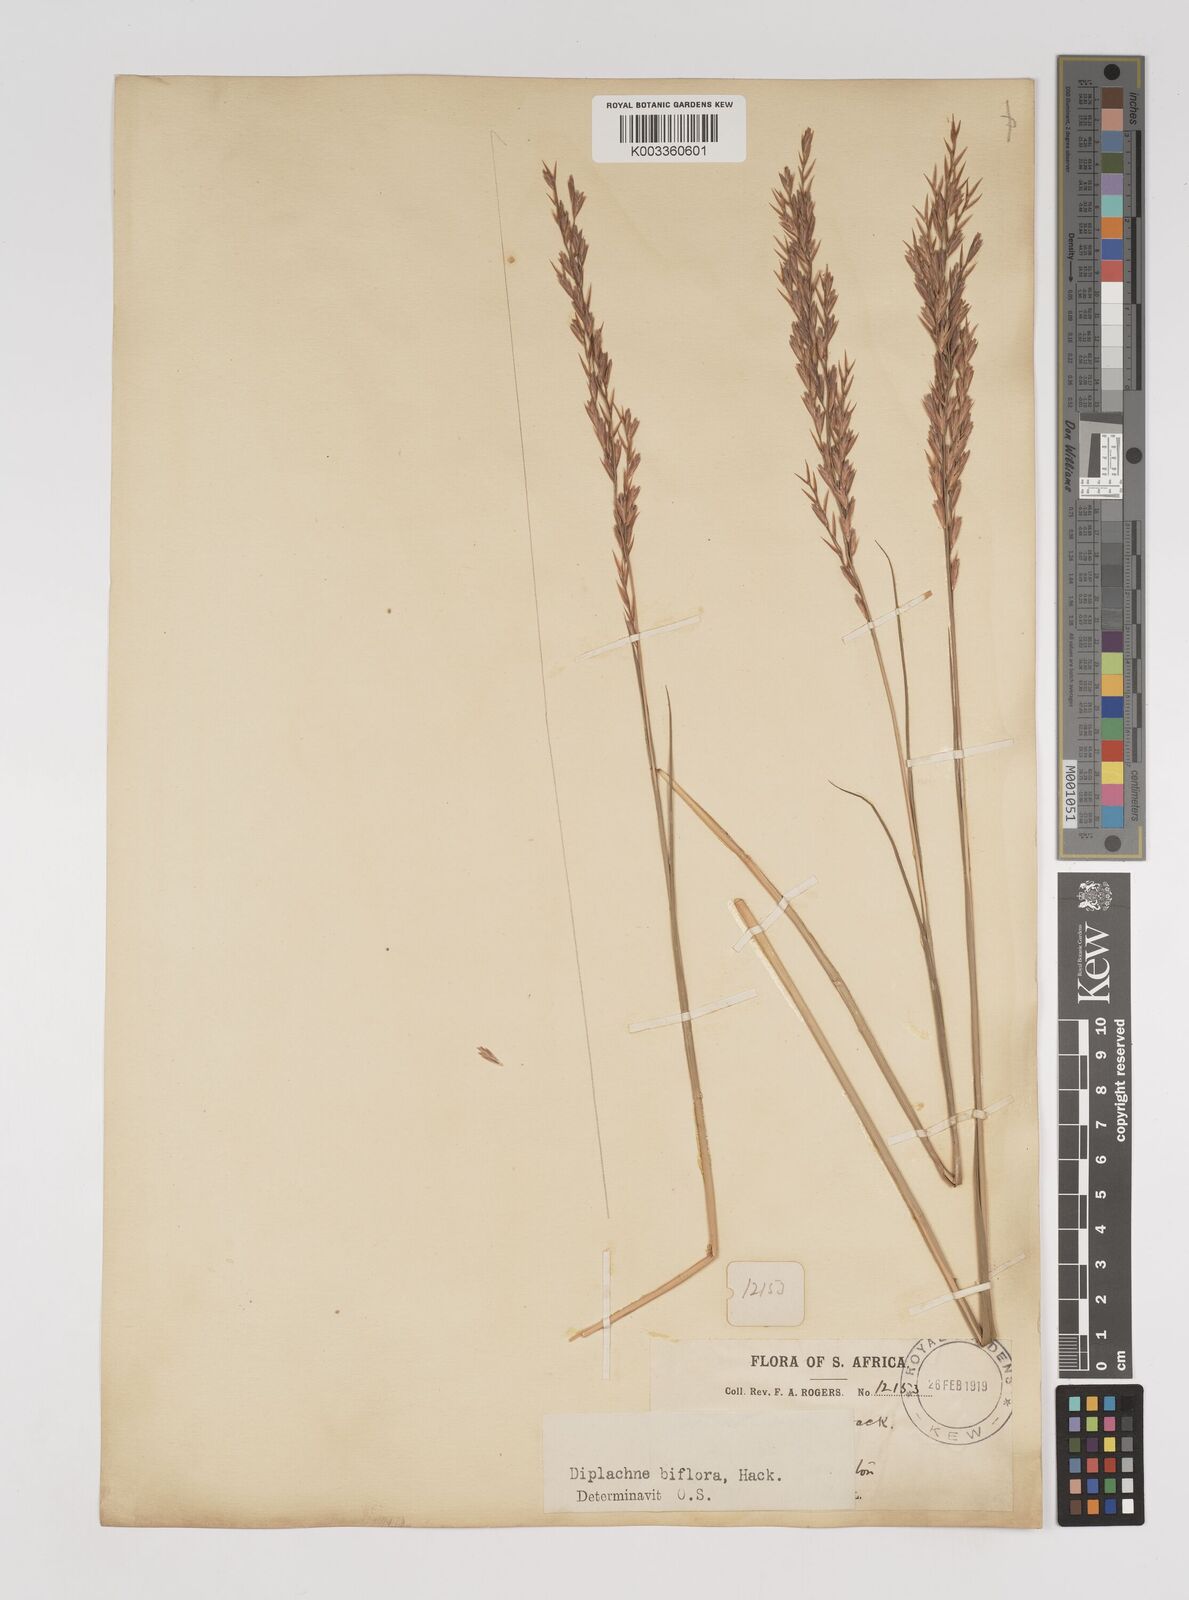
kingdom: Plantae
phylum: Tracheophyta
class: Liliopsida
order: Poales
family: Poaceae
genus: Bewsia
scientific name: Bewsia biflora
